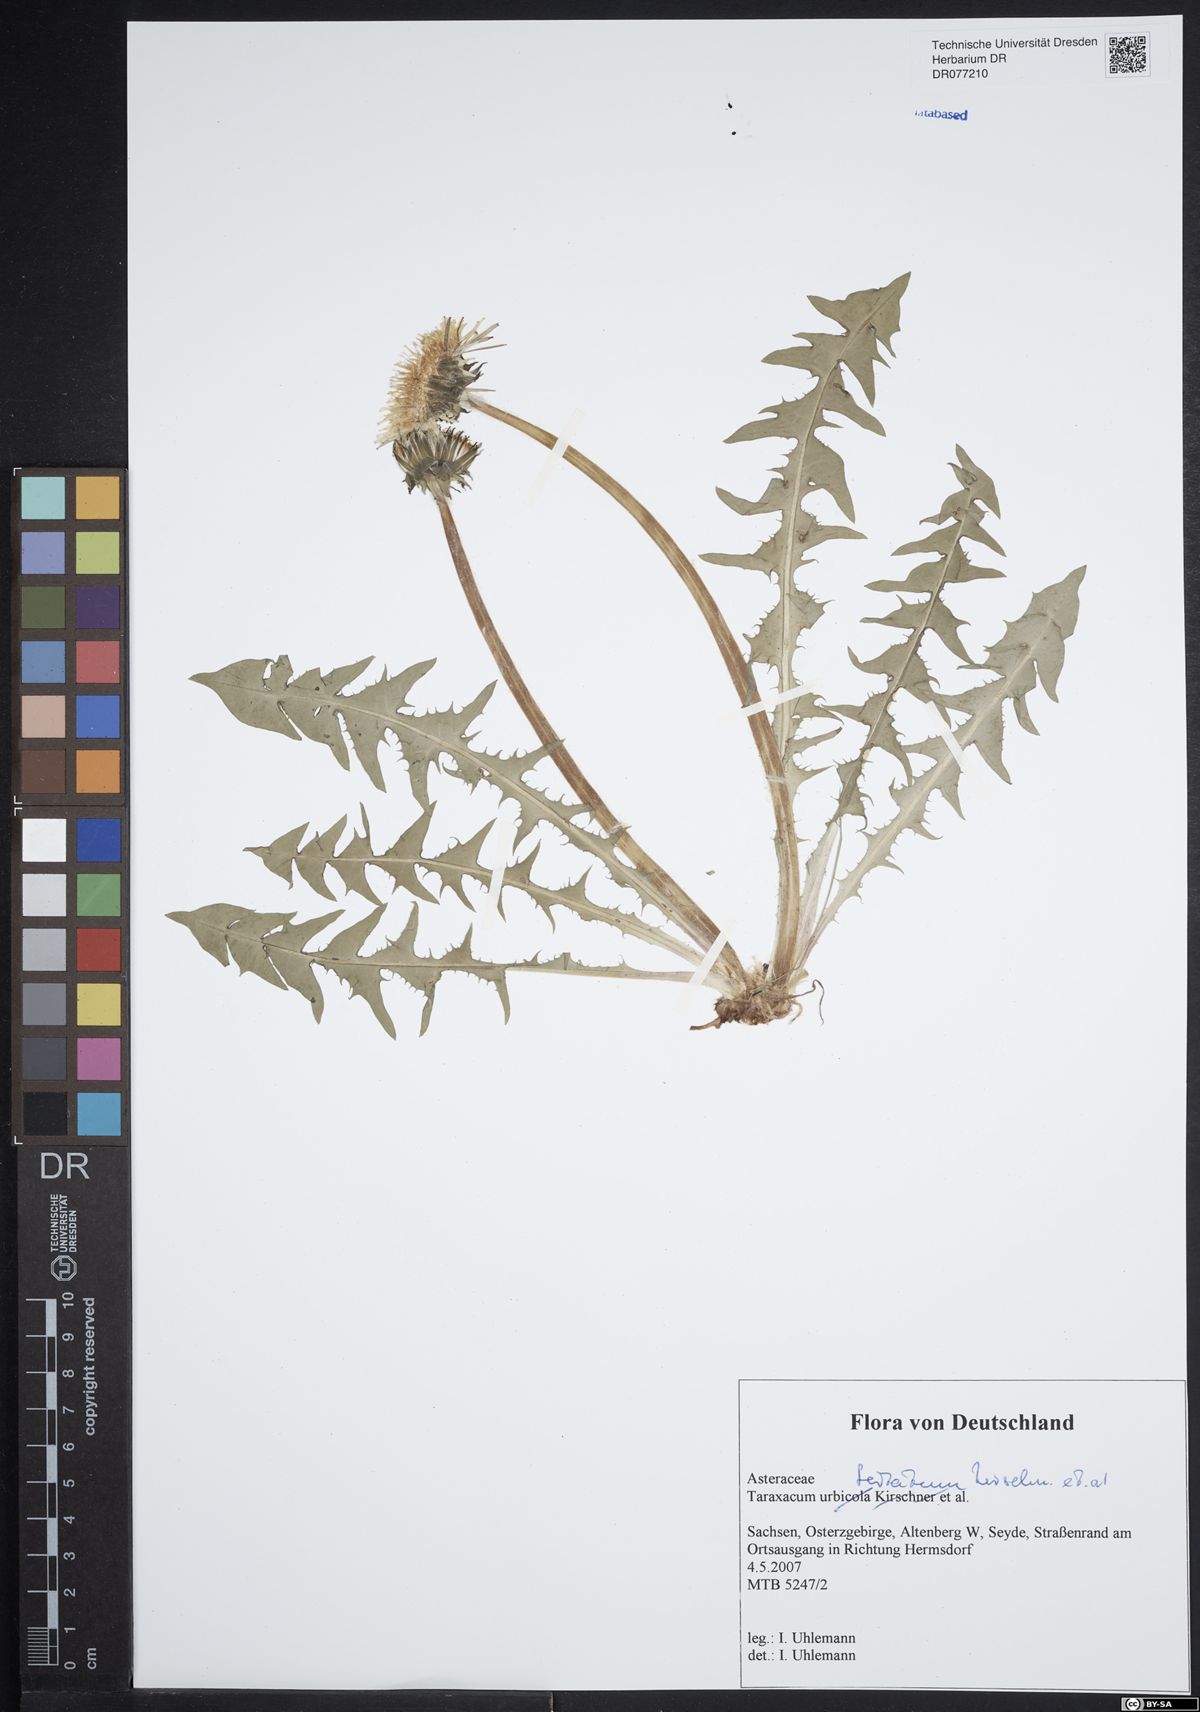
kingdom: Plantae
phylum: Tracheophyta
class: Magnoliopsida
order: Asterales
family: Asteraceae
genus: Taraxacum
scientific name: Taraxacum urbicola
